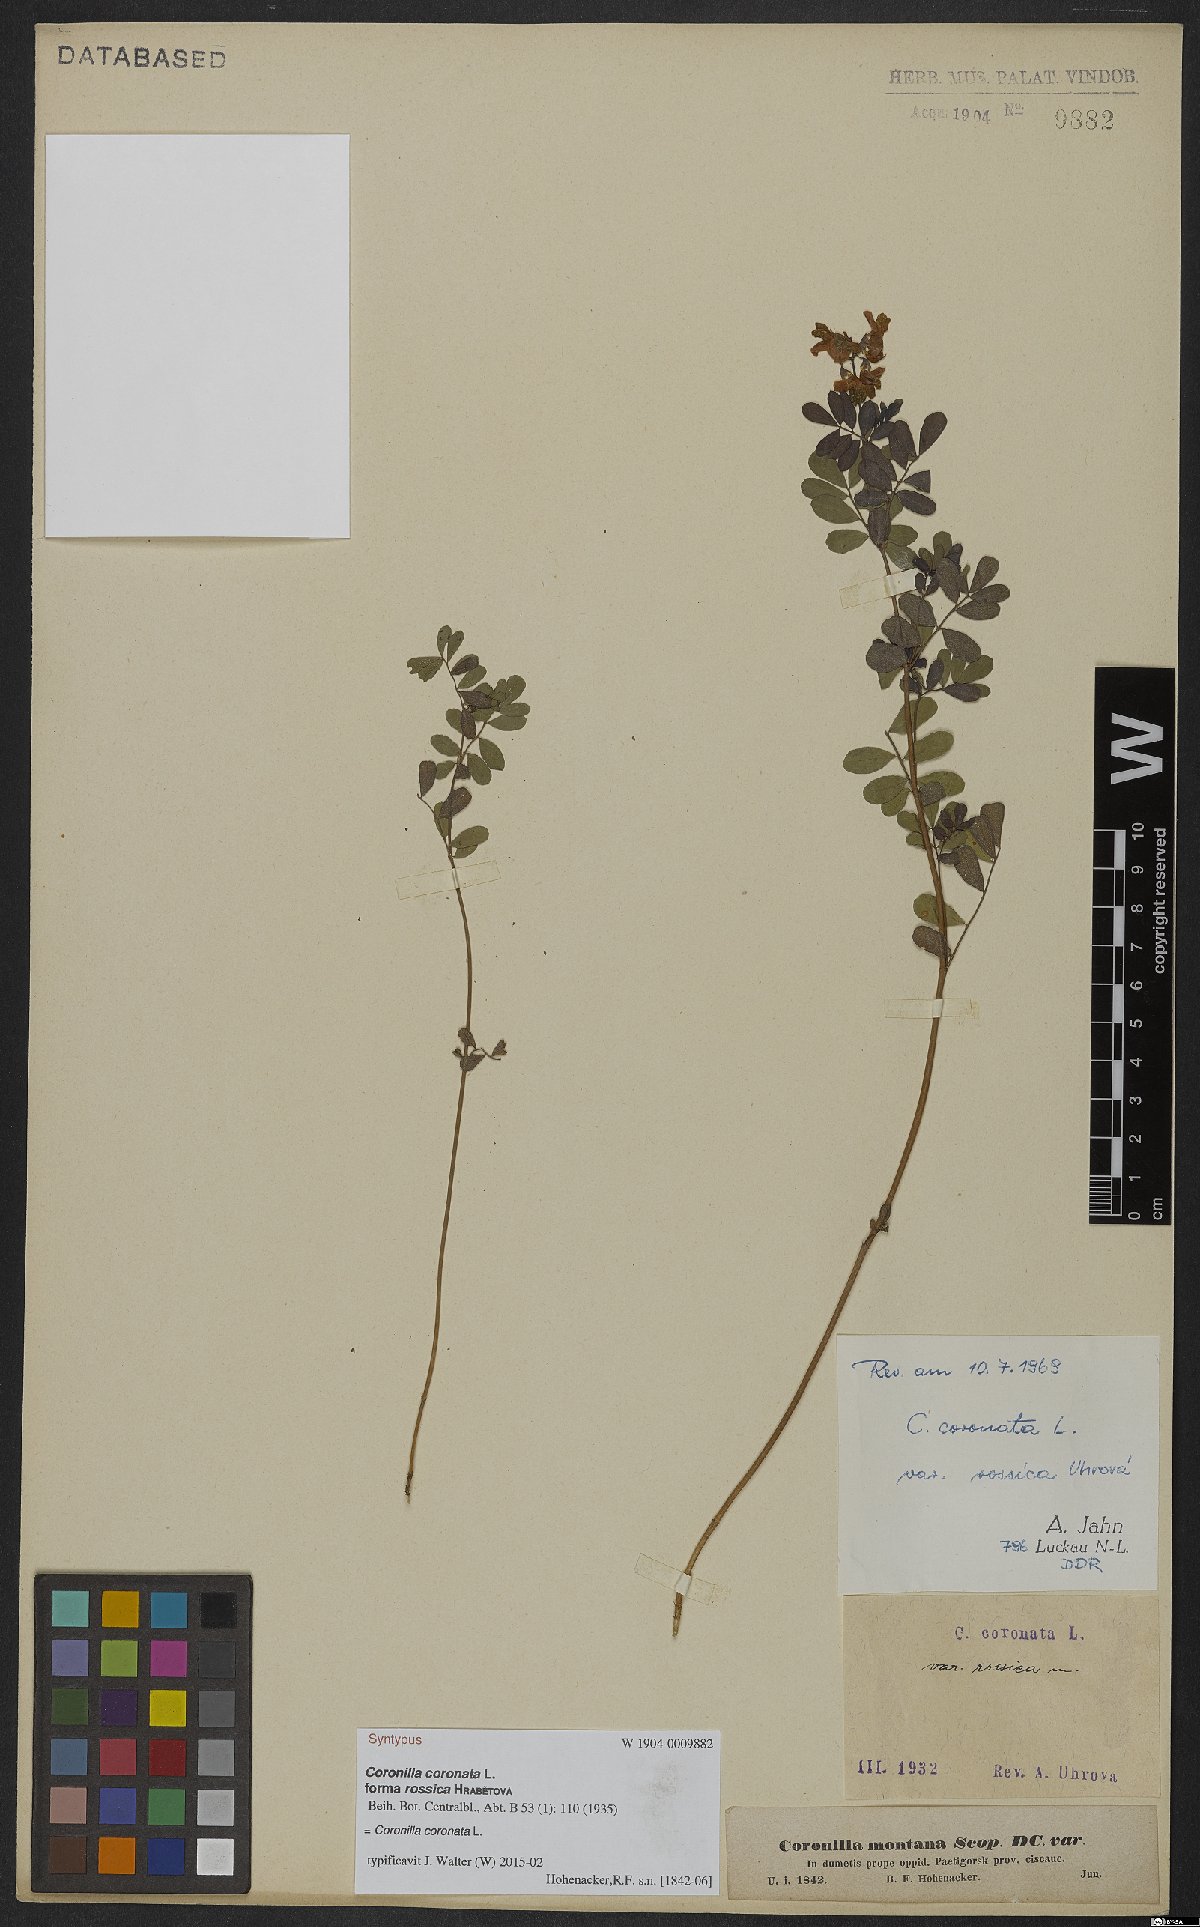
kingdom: Plantae
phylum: Tracheophyta
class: Magnoliopsida
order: Fabales
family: Fabaceae
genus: Coronilla
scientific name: Coronilla coronata
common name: Scorpion-vetch
